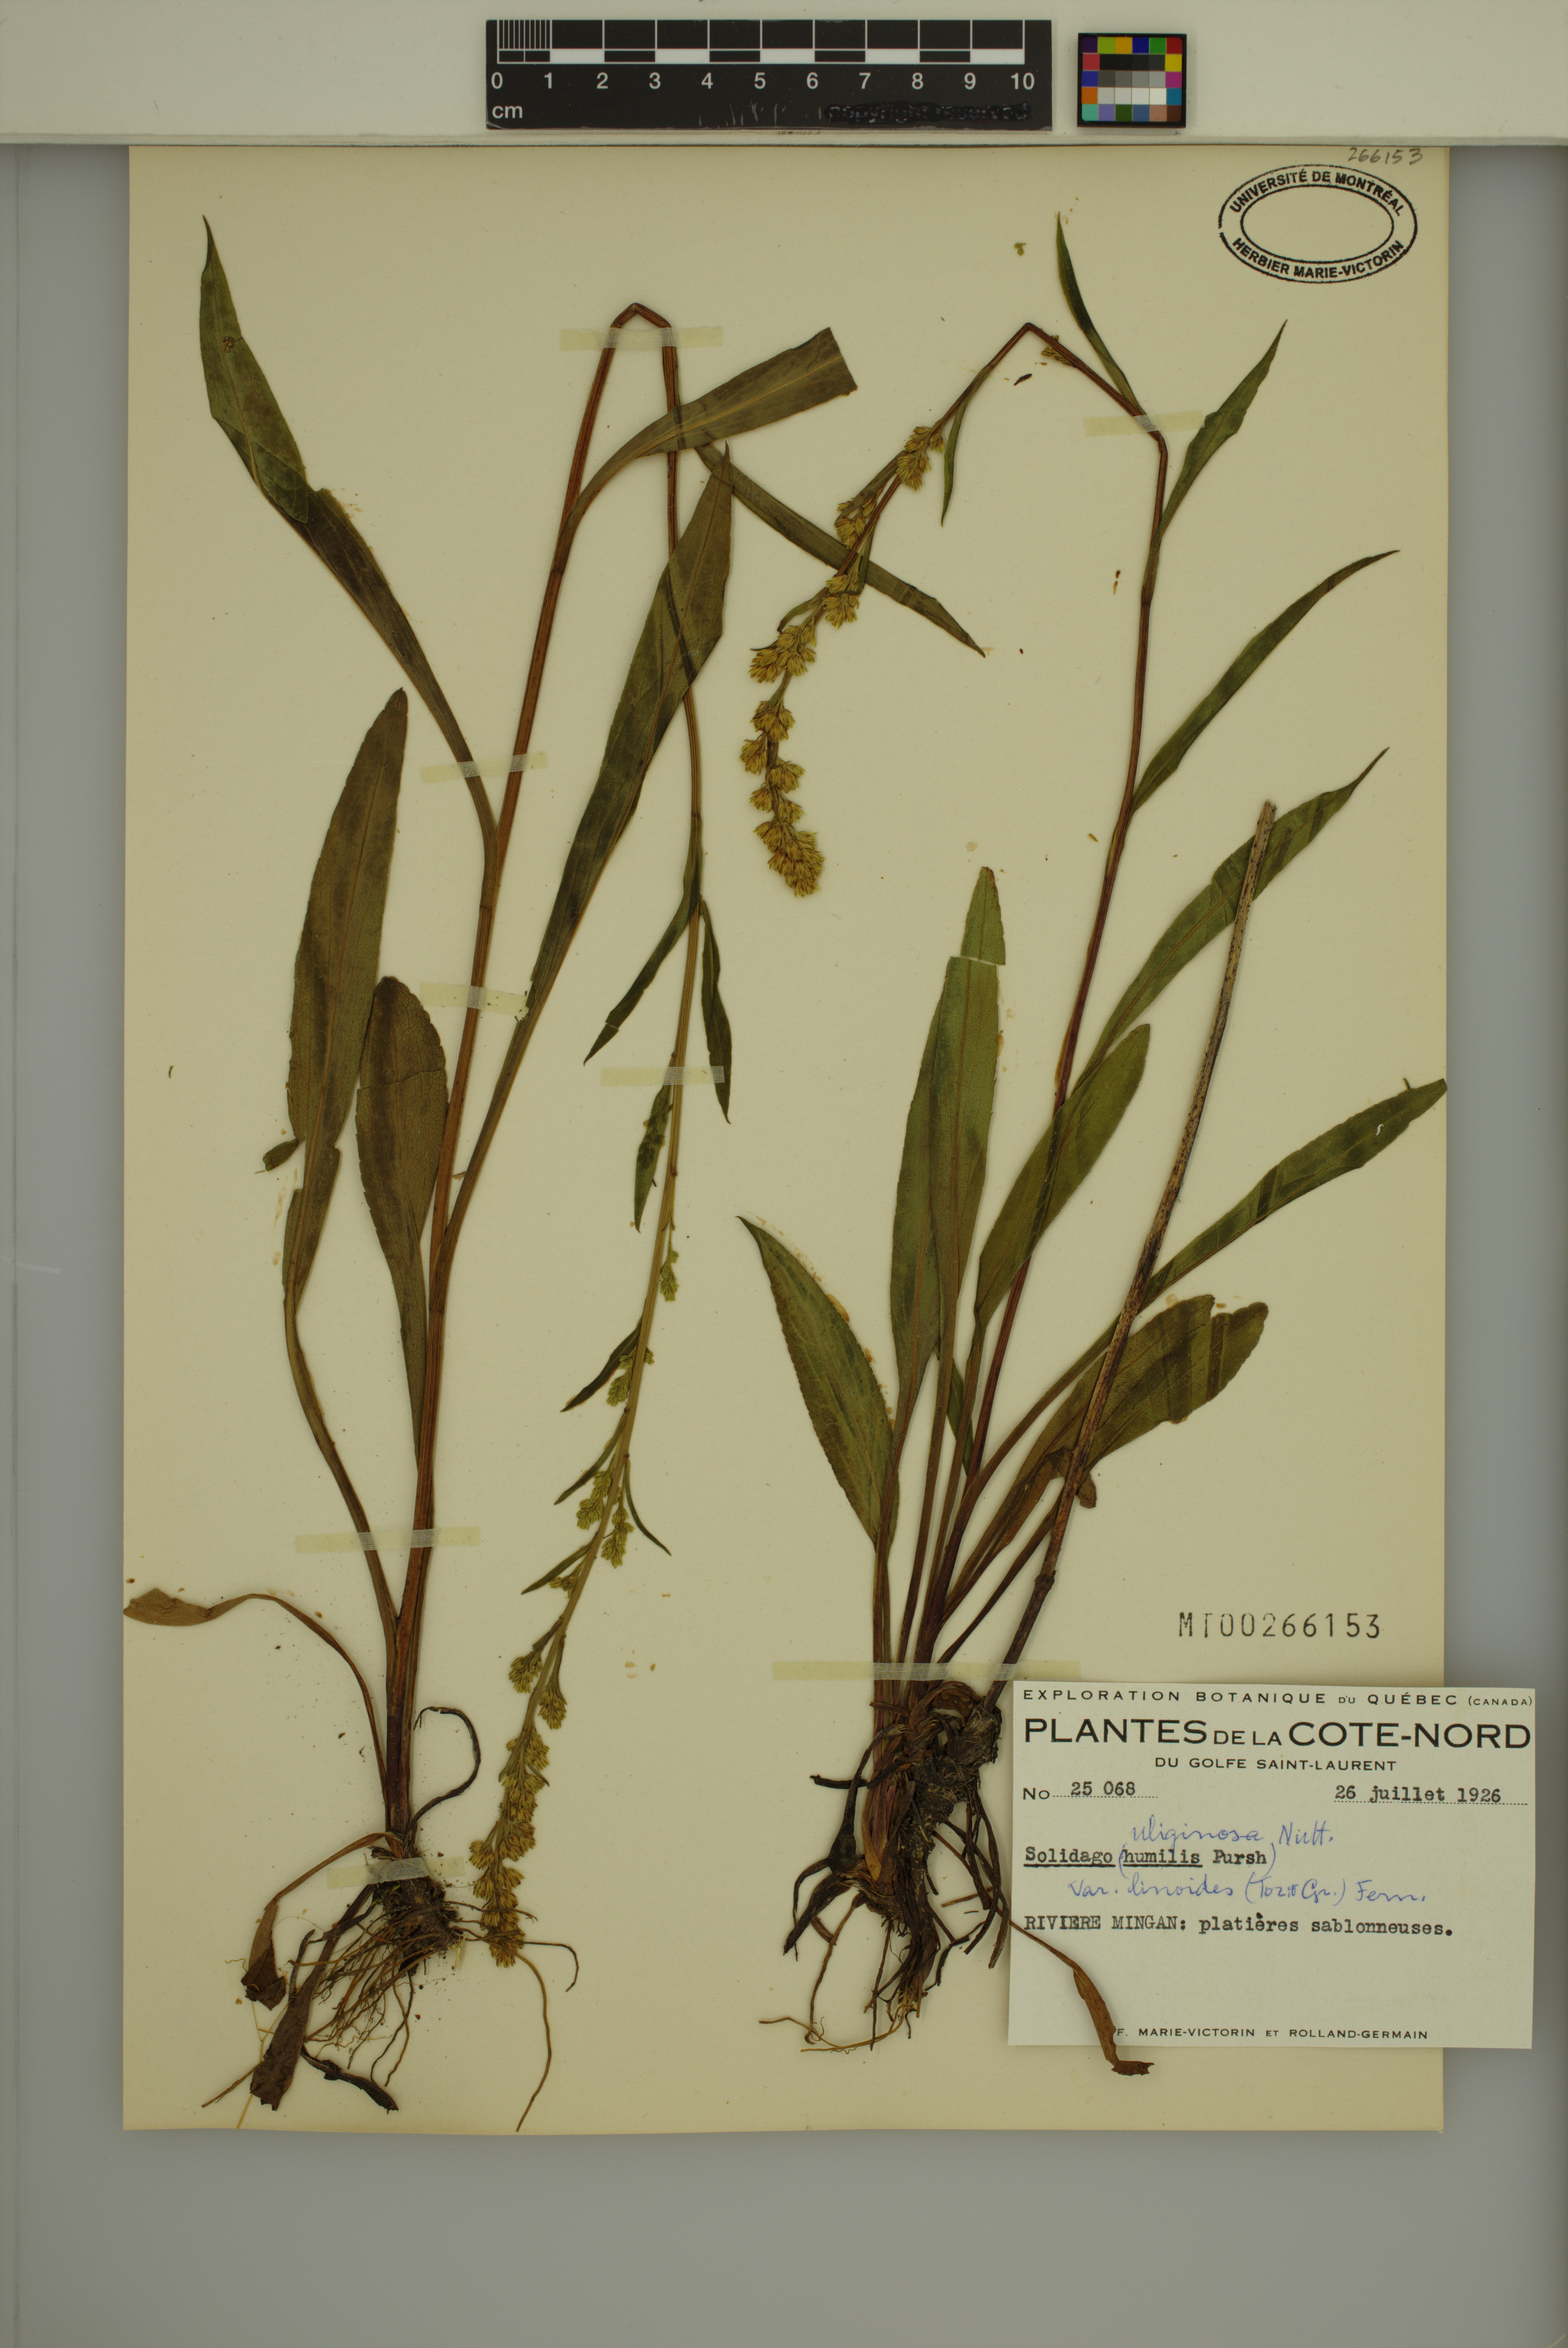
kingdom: Plantae
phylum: Tracheophyta
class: Magnoliopsida
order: Asterales
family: Asteraceae
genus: Solidago
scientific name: Solidago uliginosa
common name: Bog goldenrod
